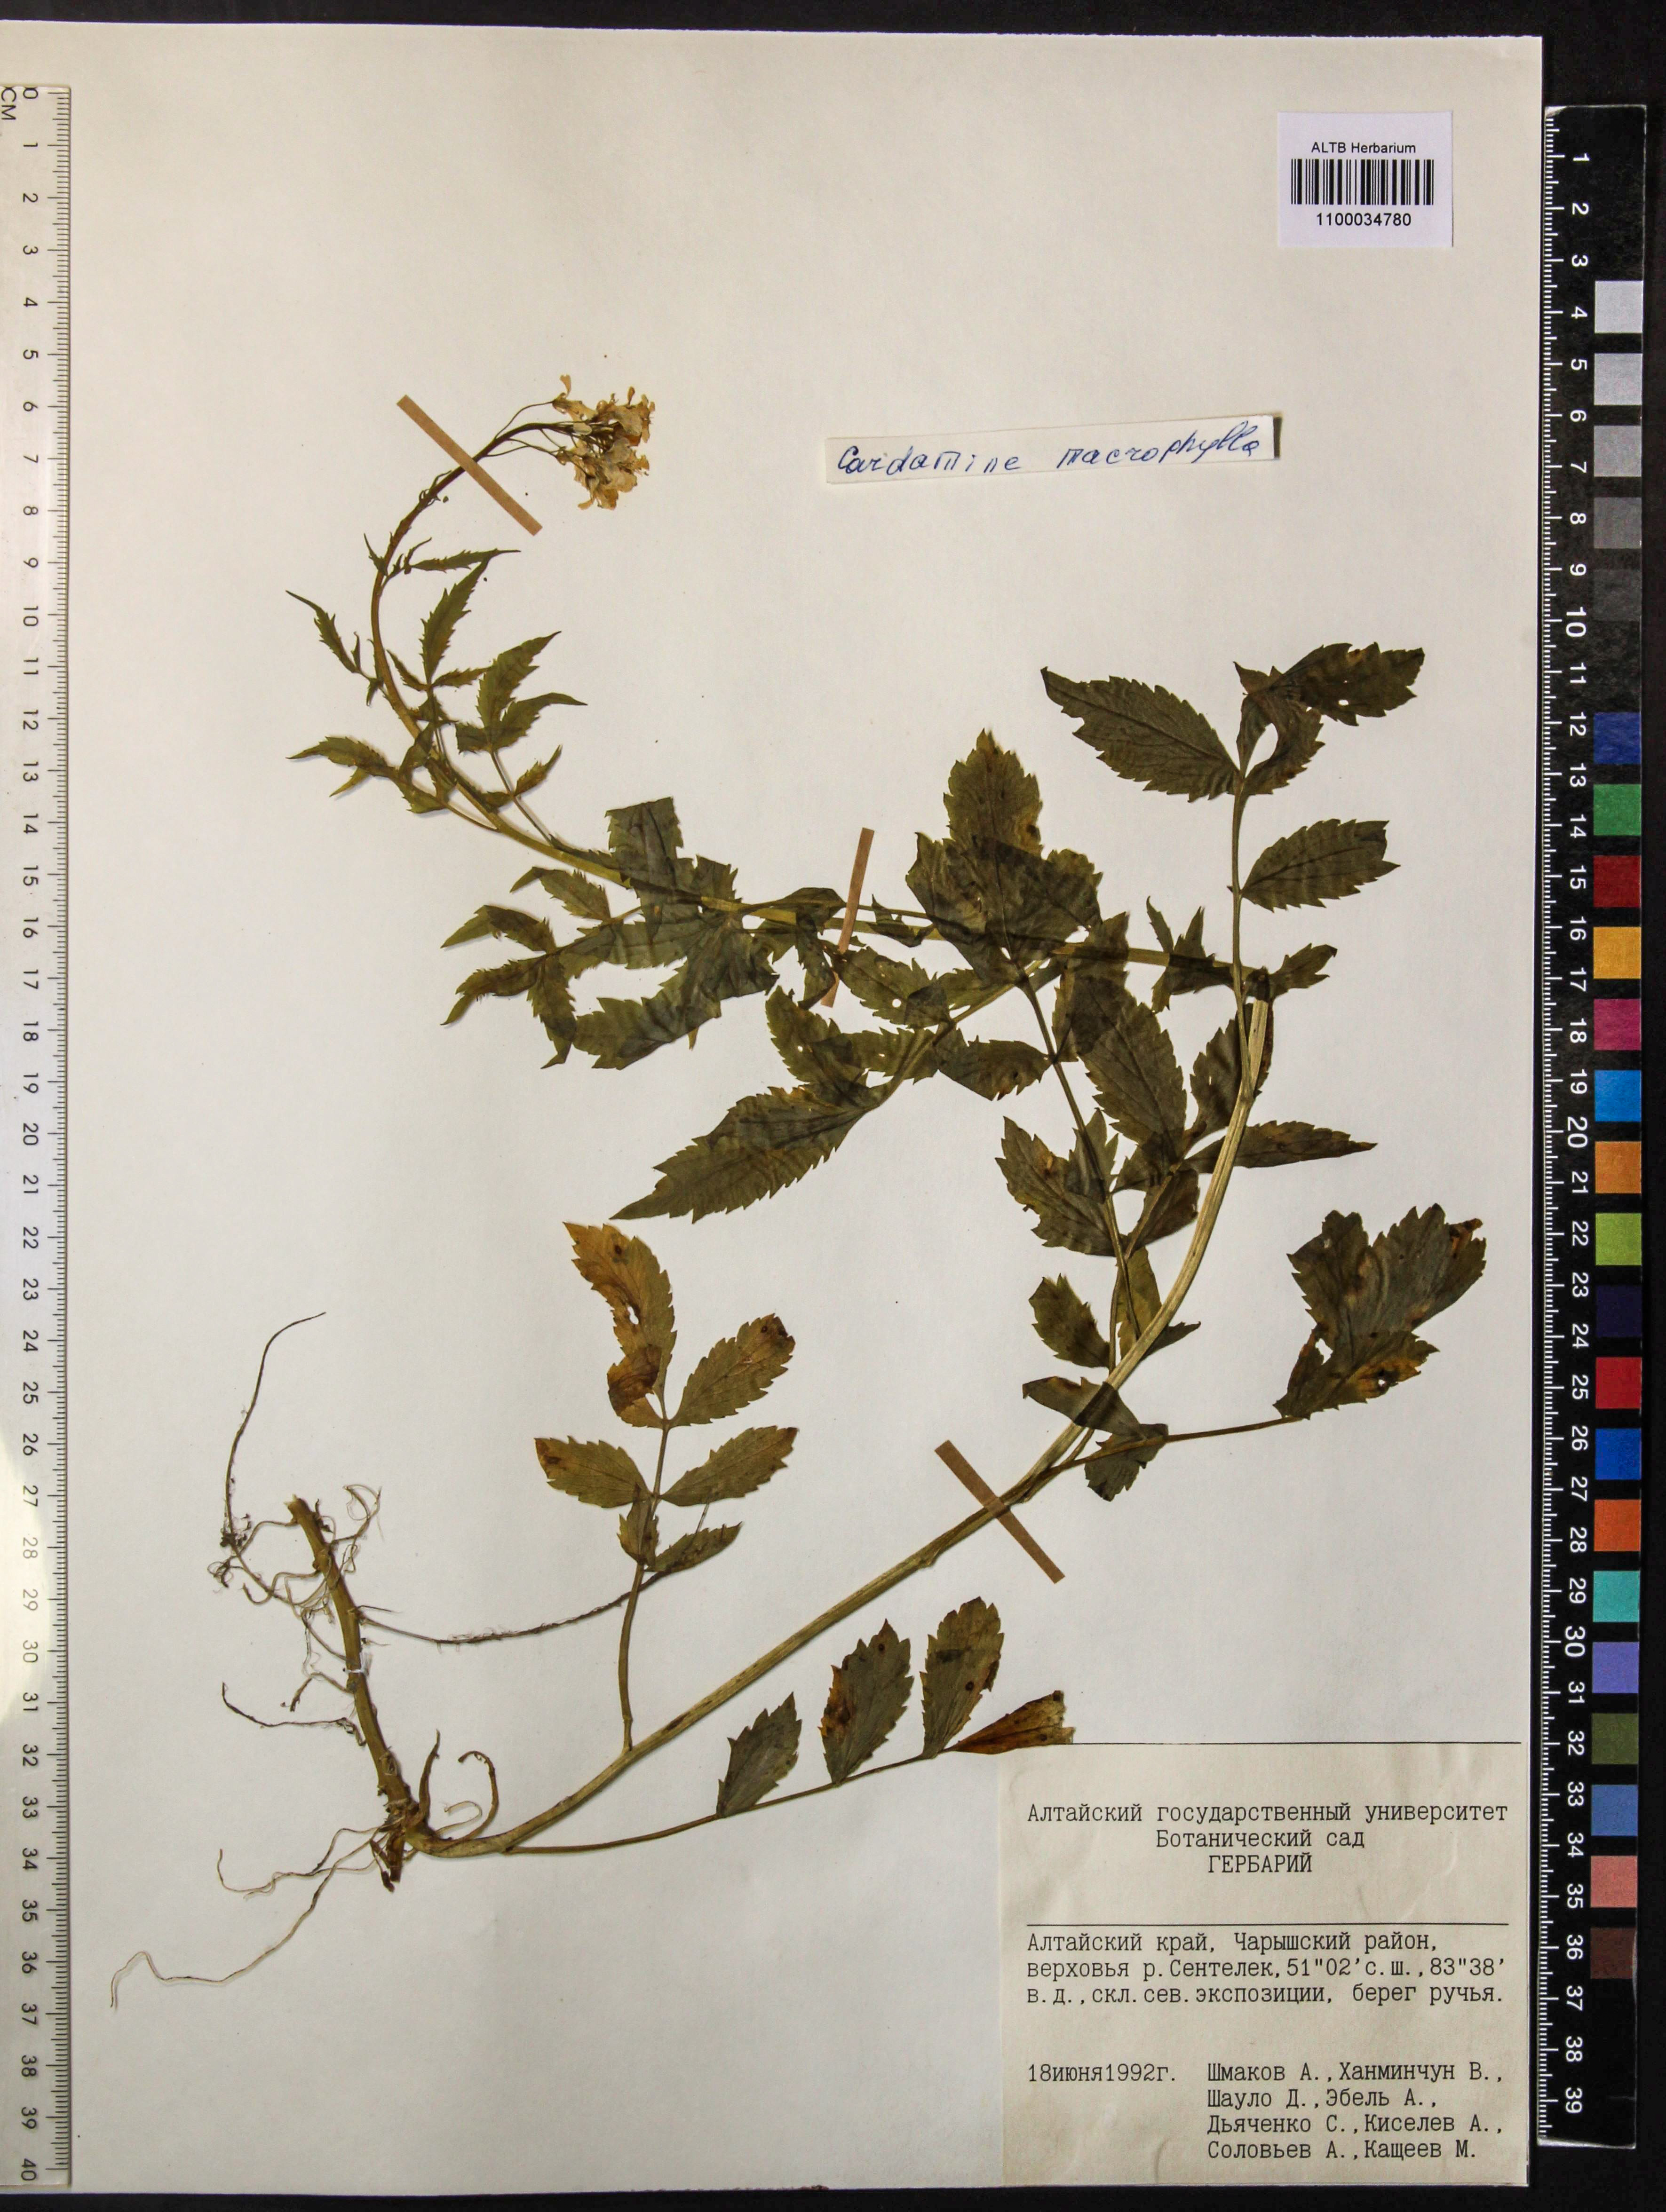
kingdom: Plantae
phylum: Tracheophyta
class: Magnoliopsida
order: Brassicales
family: Brassicaceae
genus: Cardamine
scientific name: Cardamine macrophylla
